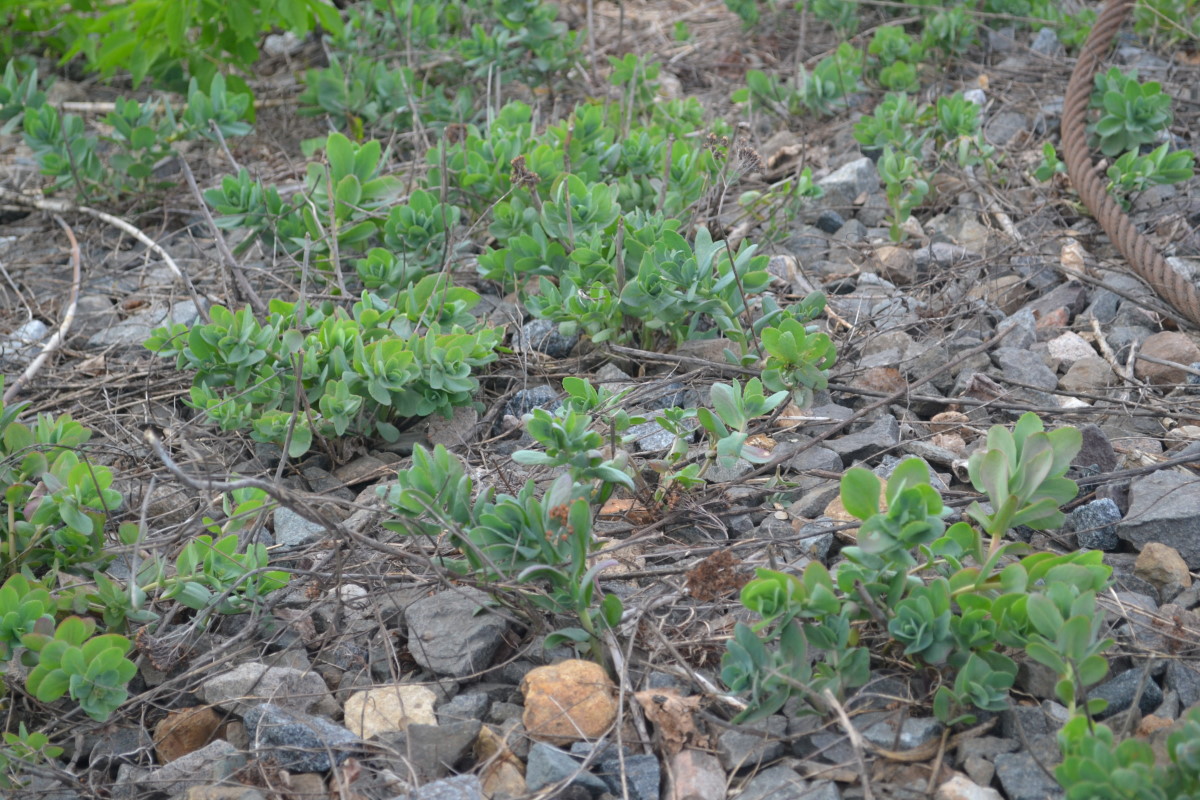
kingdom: Plantae
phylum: Tracheophyta
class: Magnoliopsida
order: Saxifragales
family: Crassulaceae
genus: Hylotelephium
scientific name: Hylotelephium telephium
